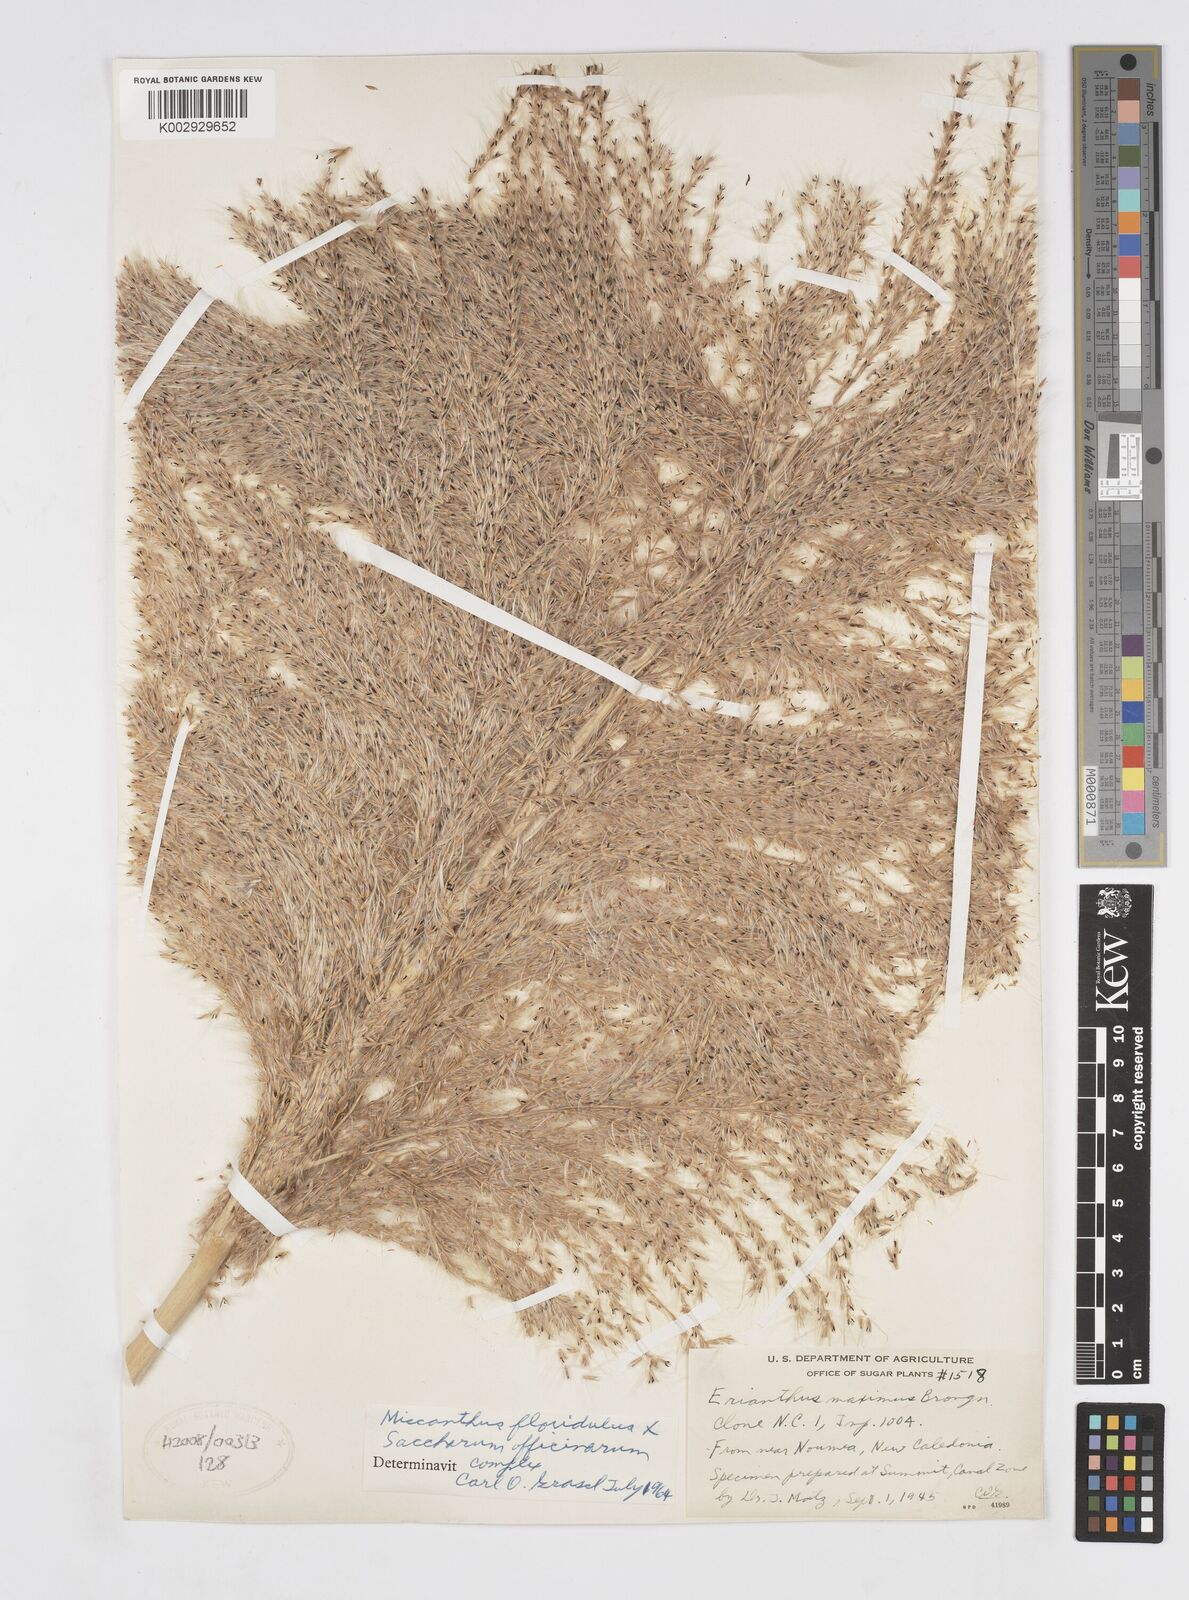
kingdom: Plantae
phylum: Tracheophyta
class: Liliopsida
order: Poales
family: Poaceae
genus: Saccharum
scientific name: Saccharum officinarum
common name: Sugarcane
